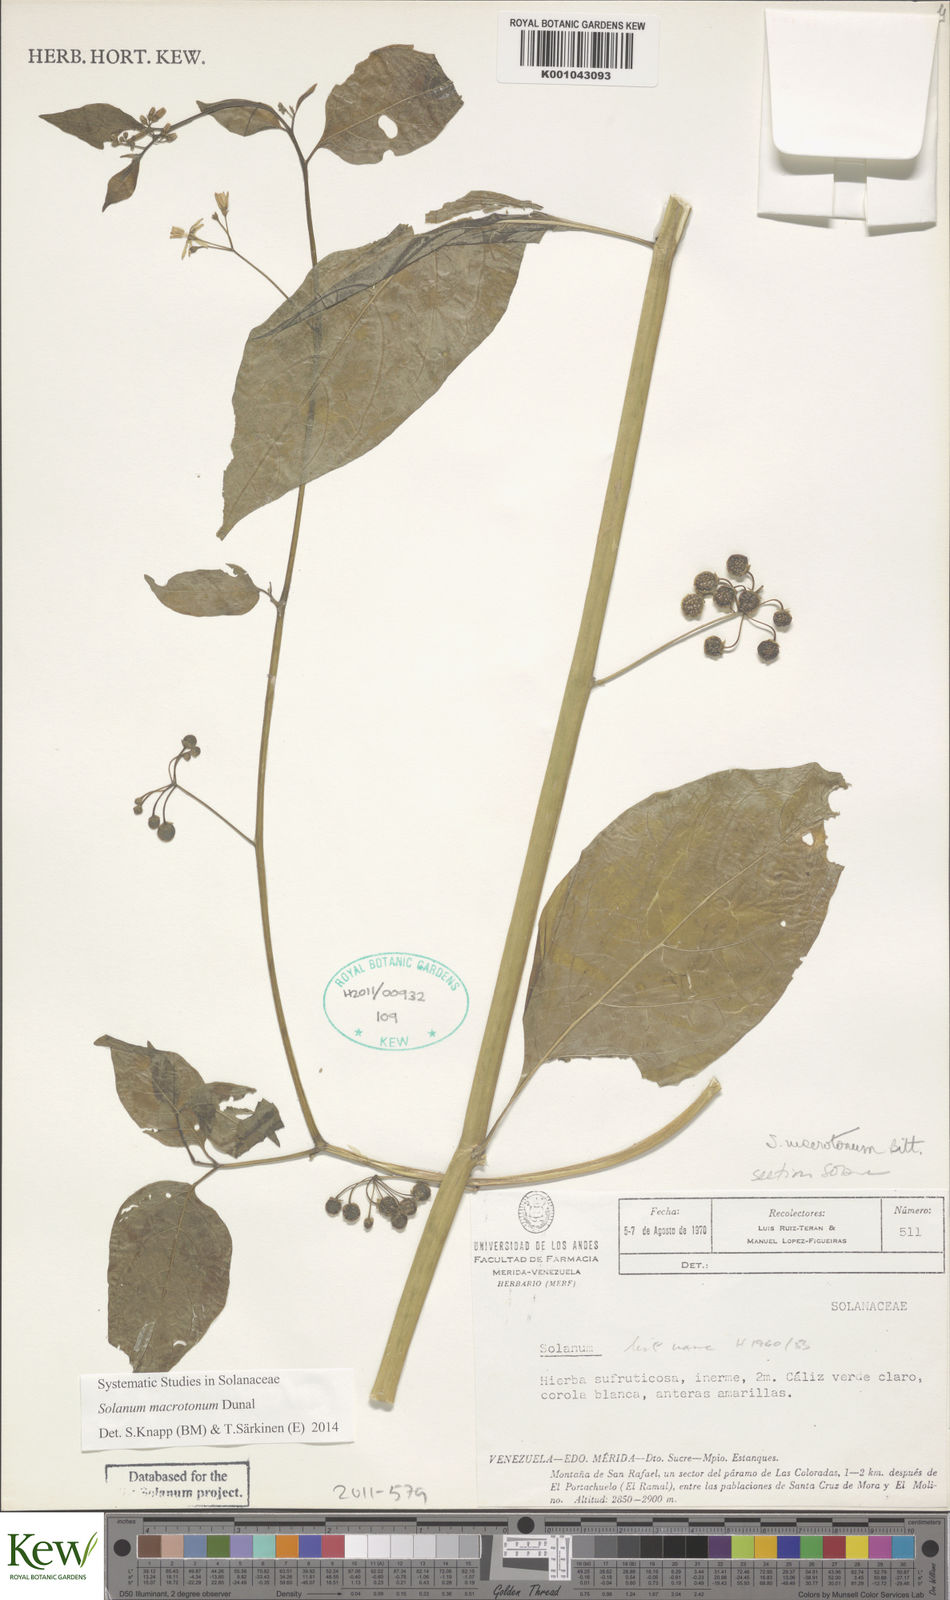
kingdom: Plantae
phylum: Tracheophyta
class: Magnoliopsida
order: Solanales
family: Solanaceae
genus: Solanum
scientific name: Solanum macrotonum
